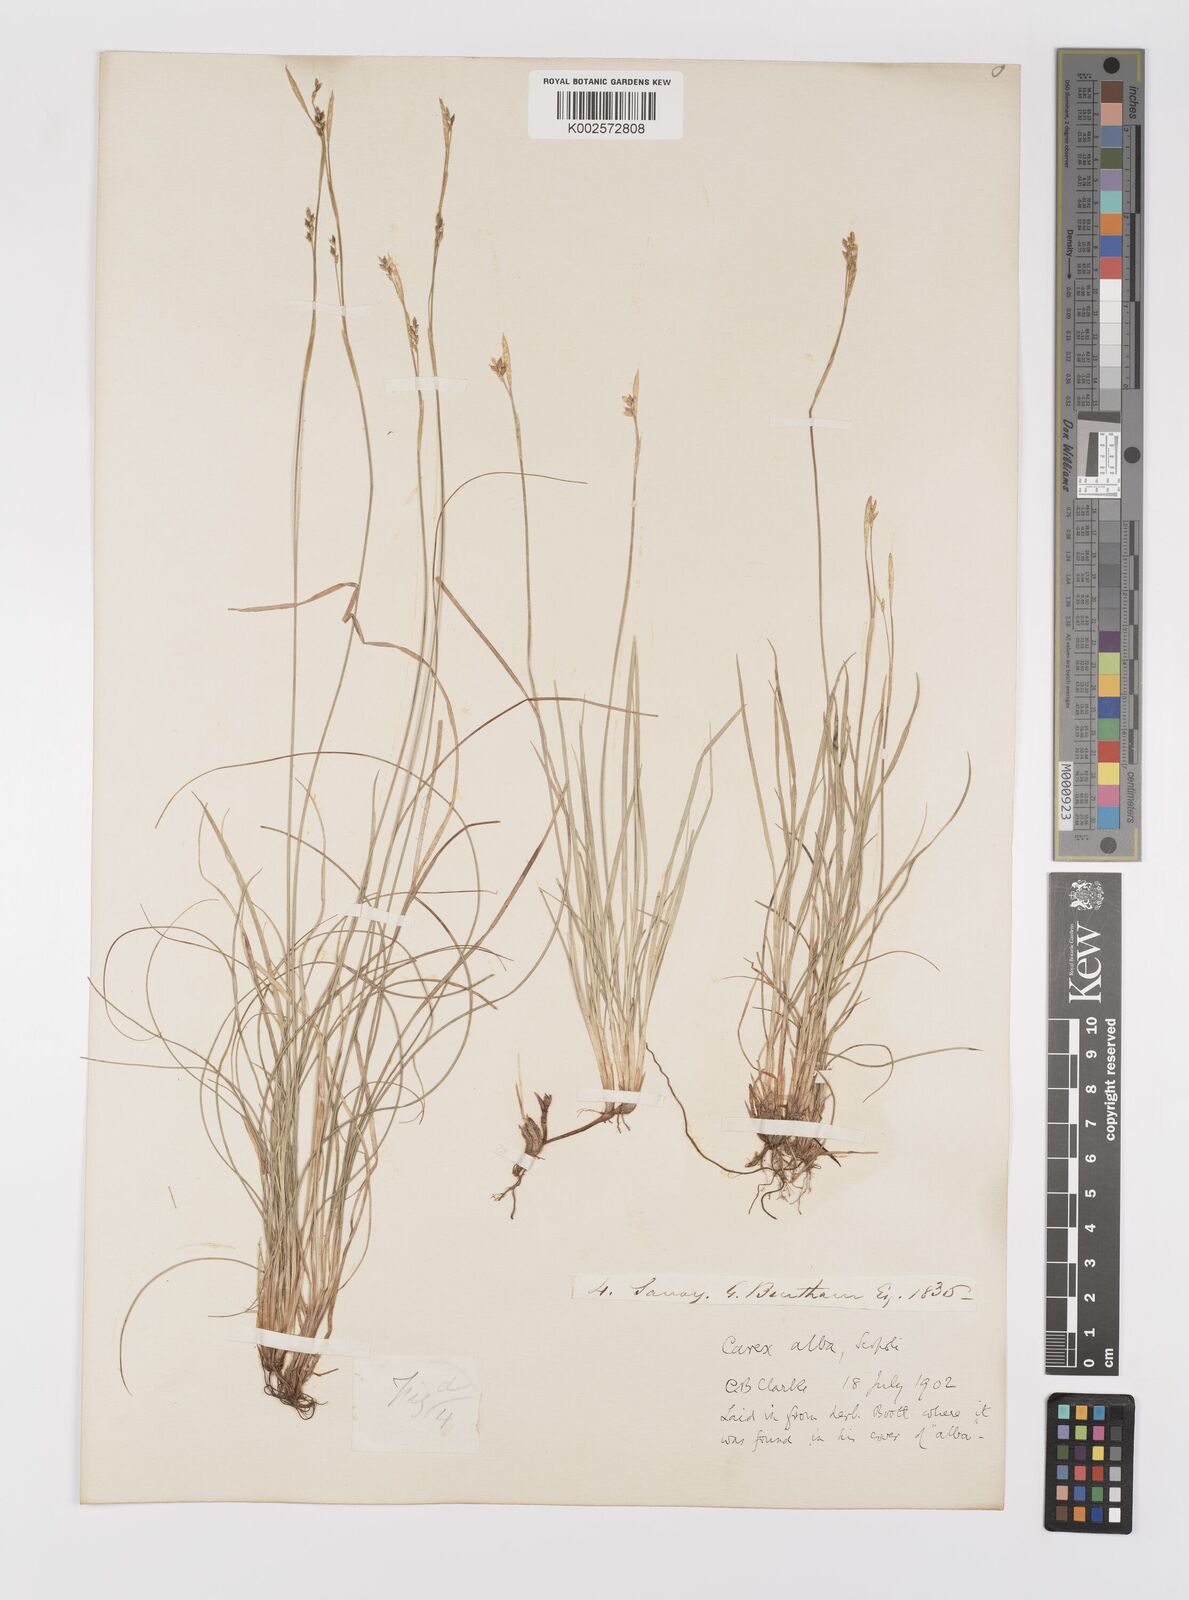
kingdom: Plantae
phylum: Tracheophyta
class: Liliopsida
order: Poales
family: Cyperaceae
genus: Carex
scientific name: Carex alba
